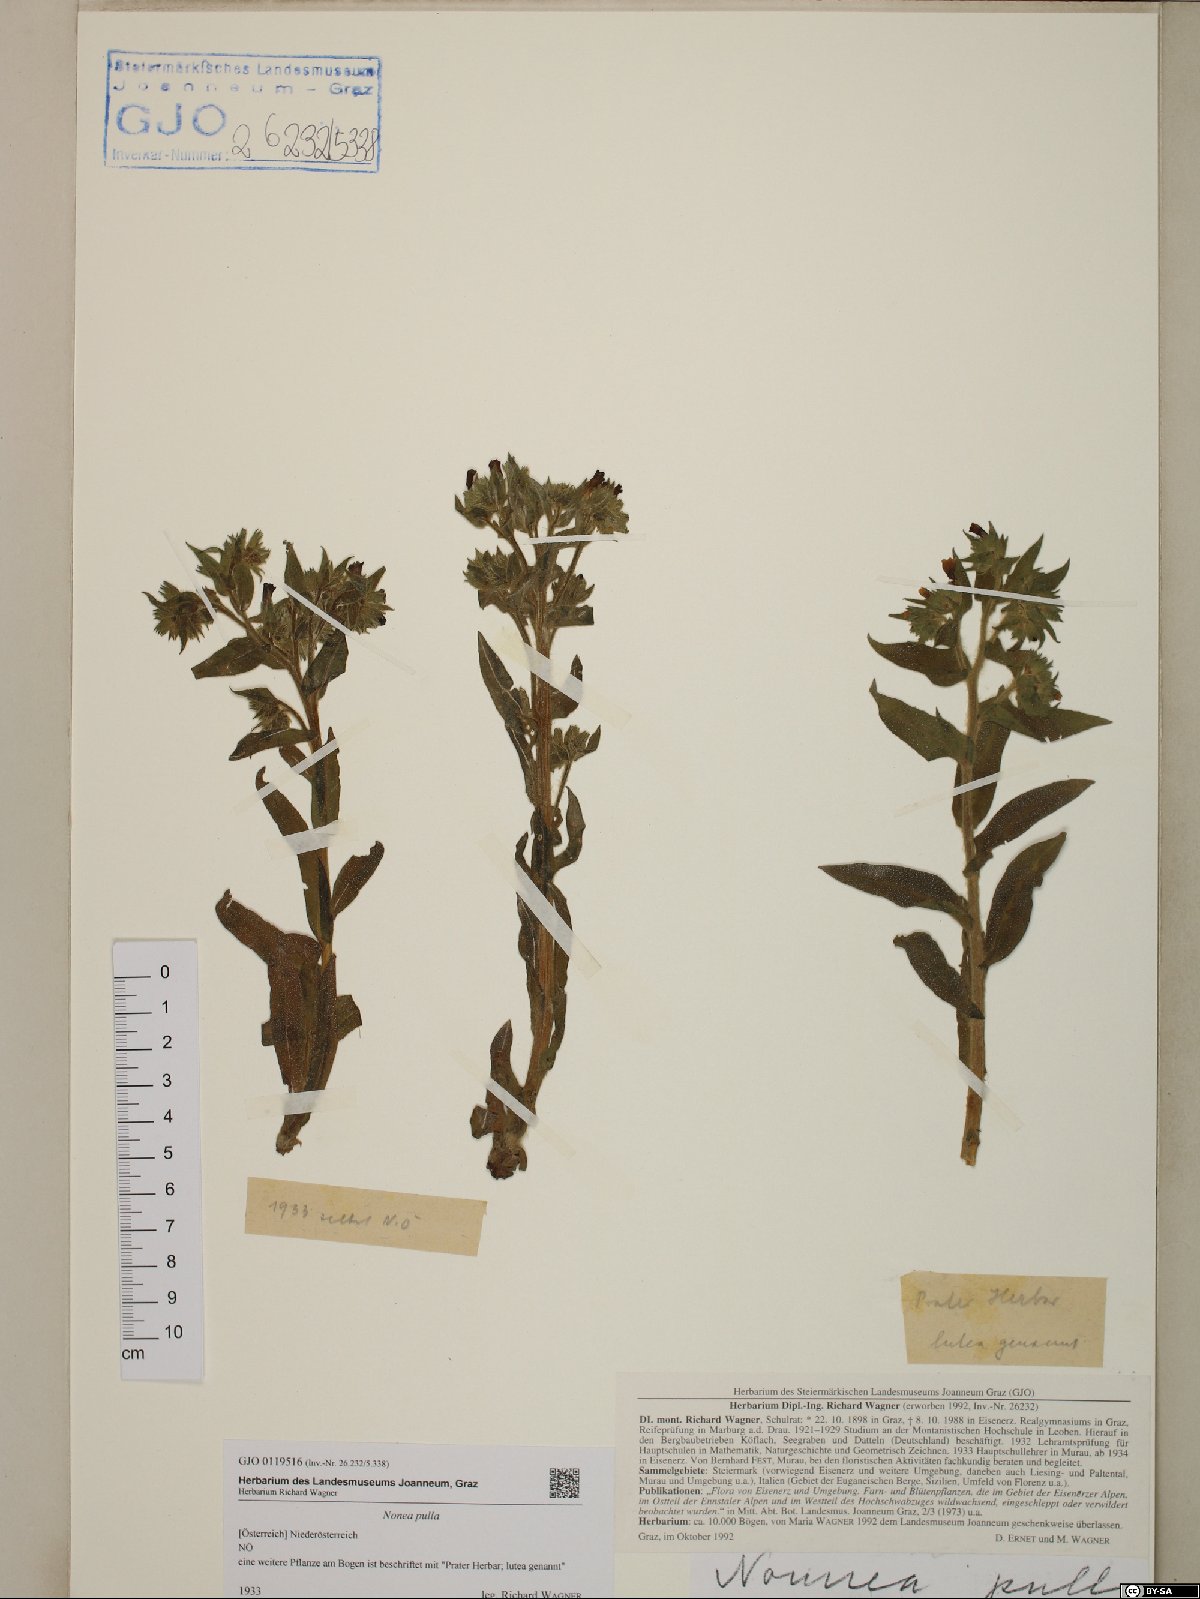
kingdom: Plantae
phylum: Tracheophyta
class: Magnoliopsida
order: Boraginales
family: Boraginaceae
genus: Nonea
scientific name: Nonea pulla
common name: Brown nonea
